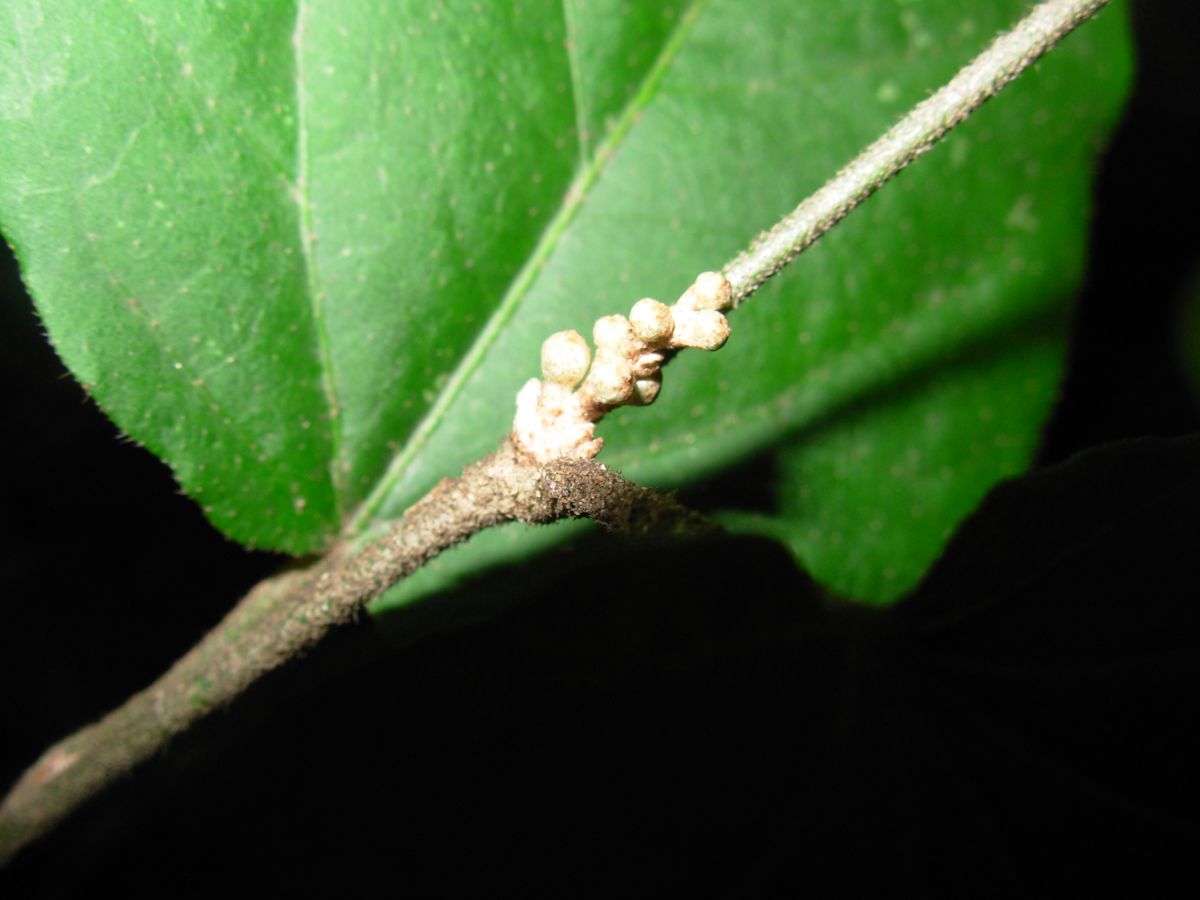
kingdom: Plantae
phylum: Tracheophyta
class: Magnoliopsida
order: Malpighiales
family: Euphorbiaceae
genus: Croton
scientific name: Croton guatemalensis
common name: Copalchi
